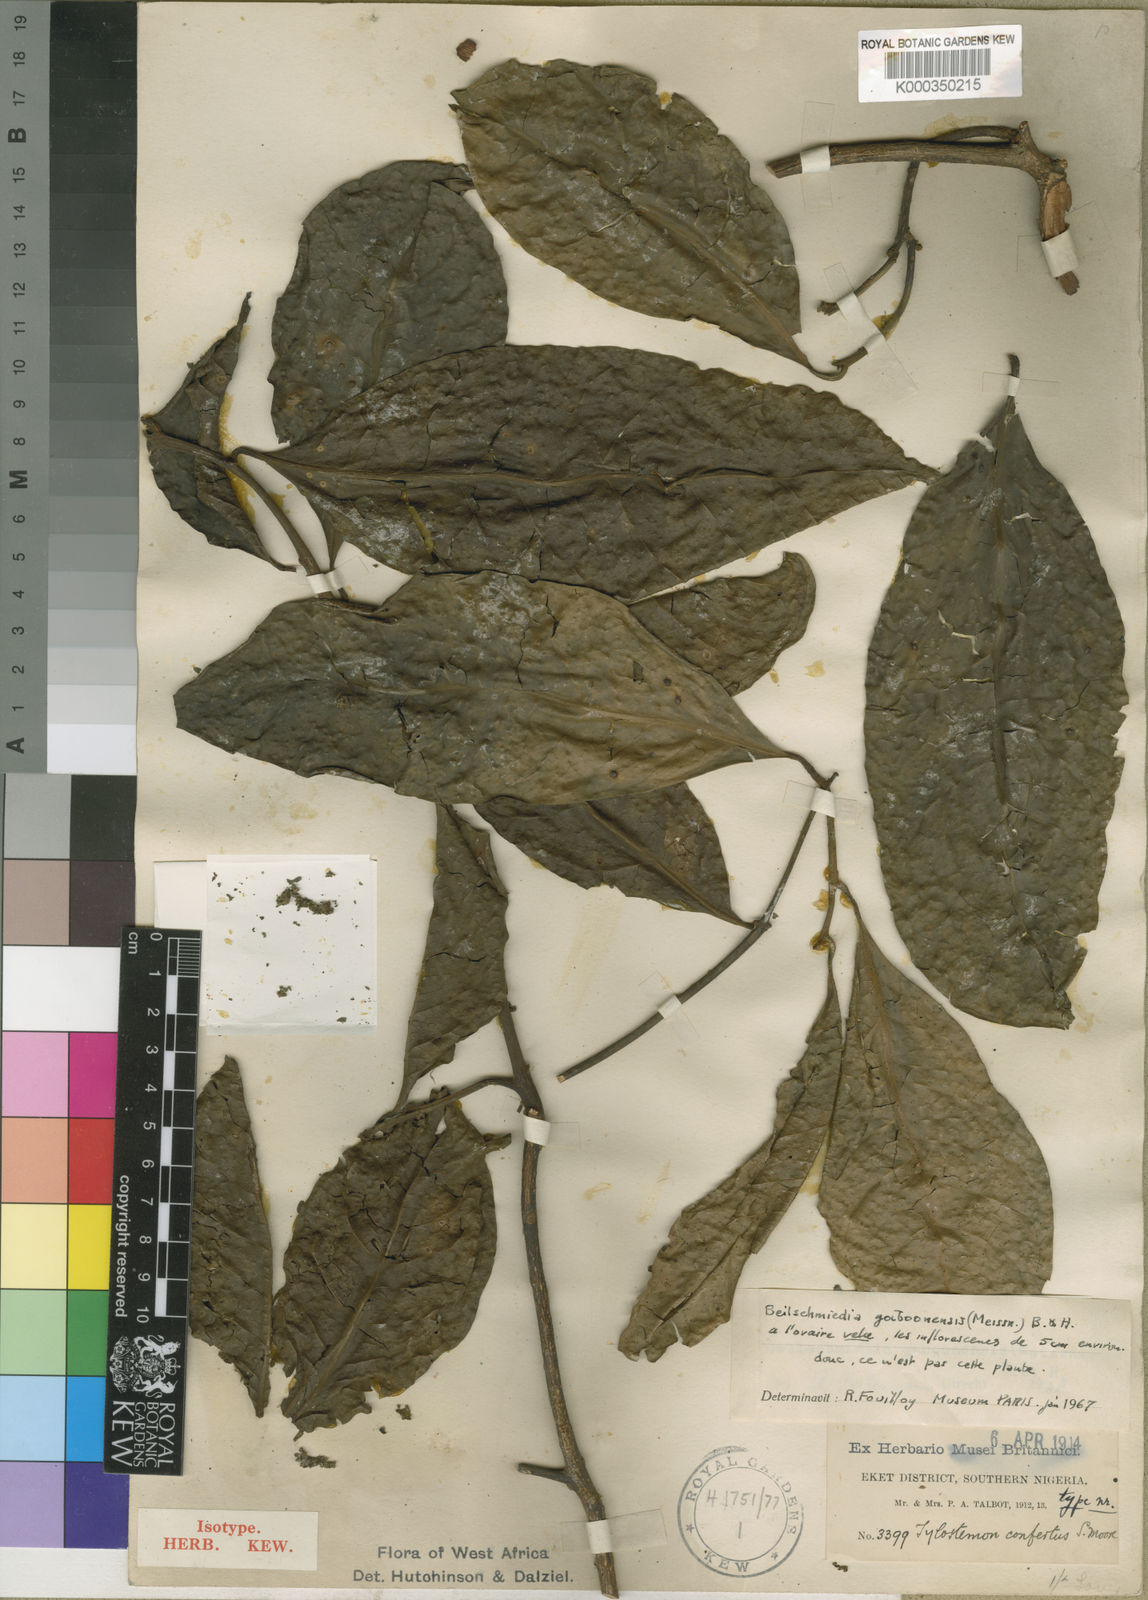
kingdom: Plantae
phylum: Tracheophyta
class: Magnoliopsida
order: Laurales
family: Lauraceae
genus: Beilschmiedia
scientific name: Beilschmiedia gaboonensis
